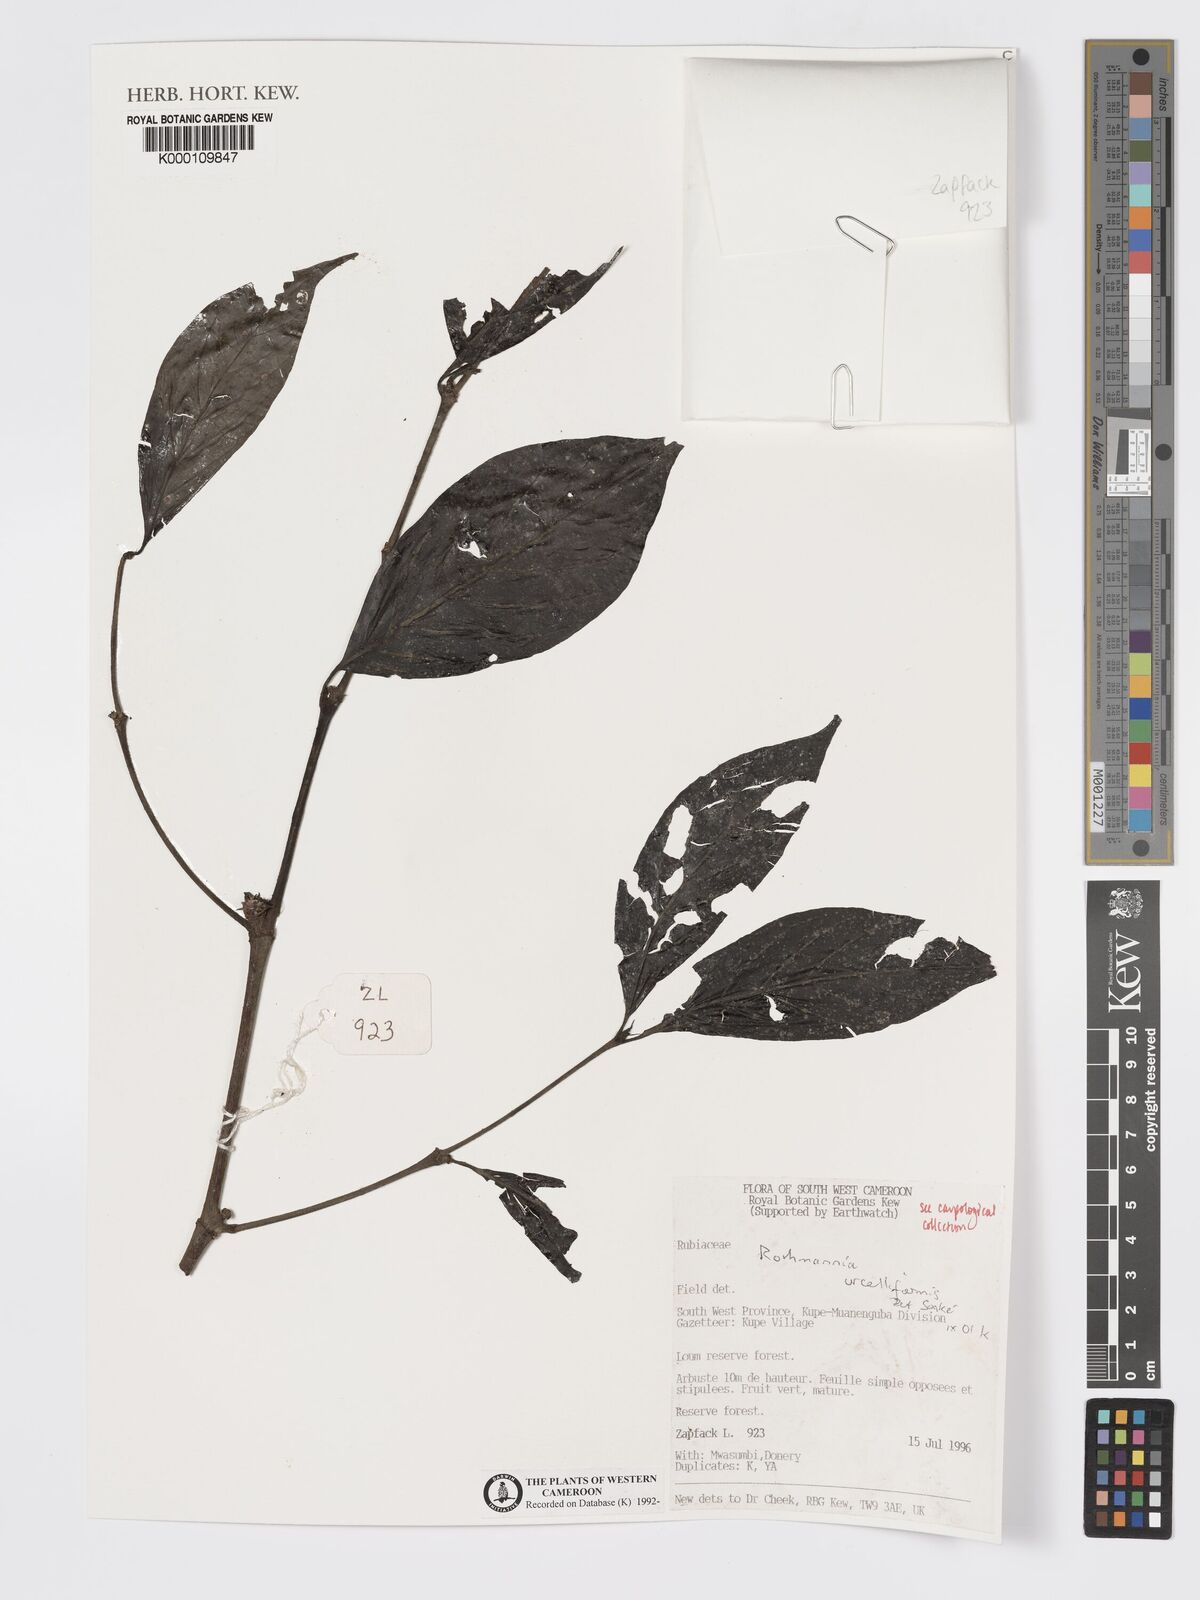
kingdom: Plantae
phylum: Tracheophyta
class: Magnoliopsida
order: Gentianales
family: Rubiaceae
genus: Rothmannia
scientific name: Rothmannia urcelliformis
